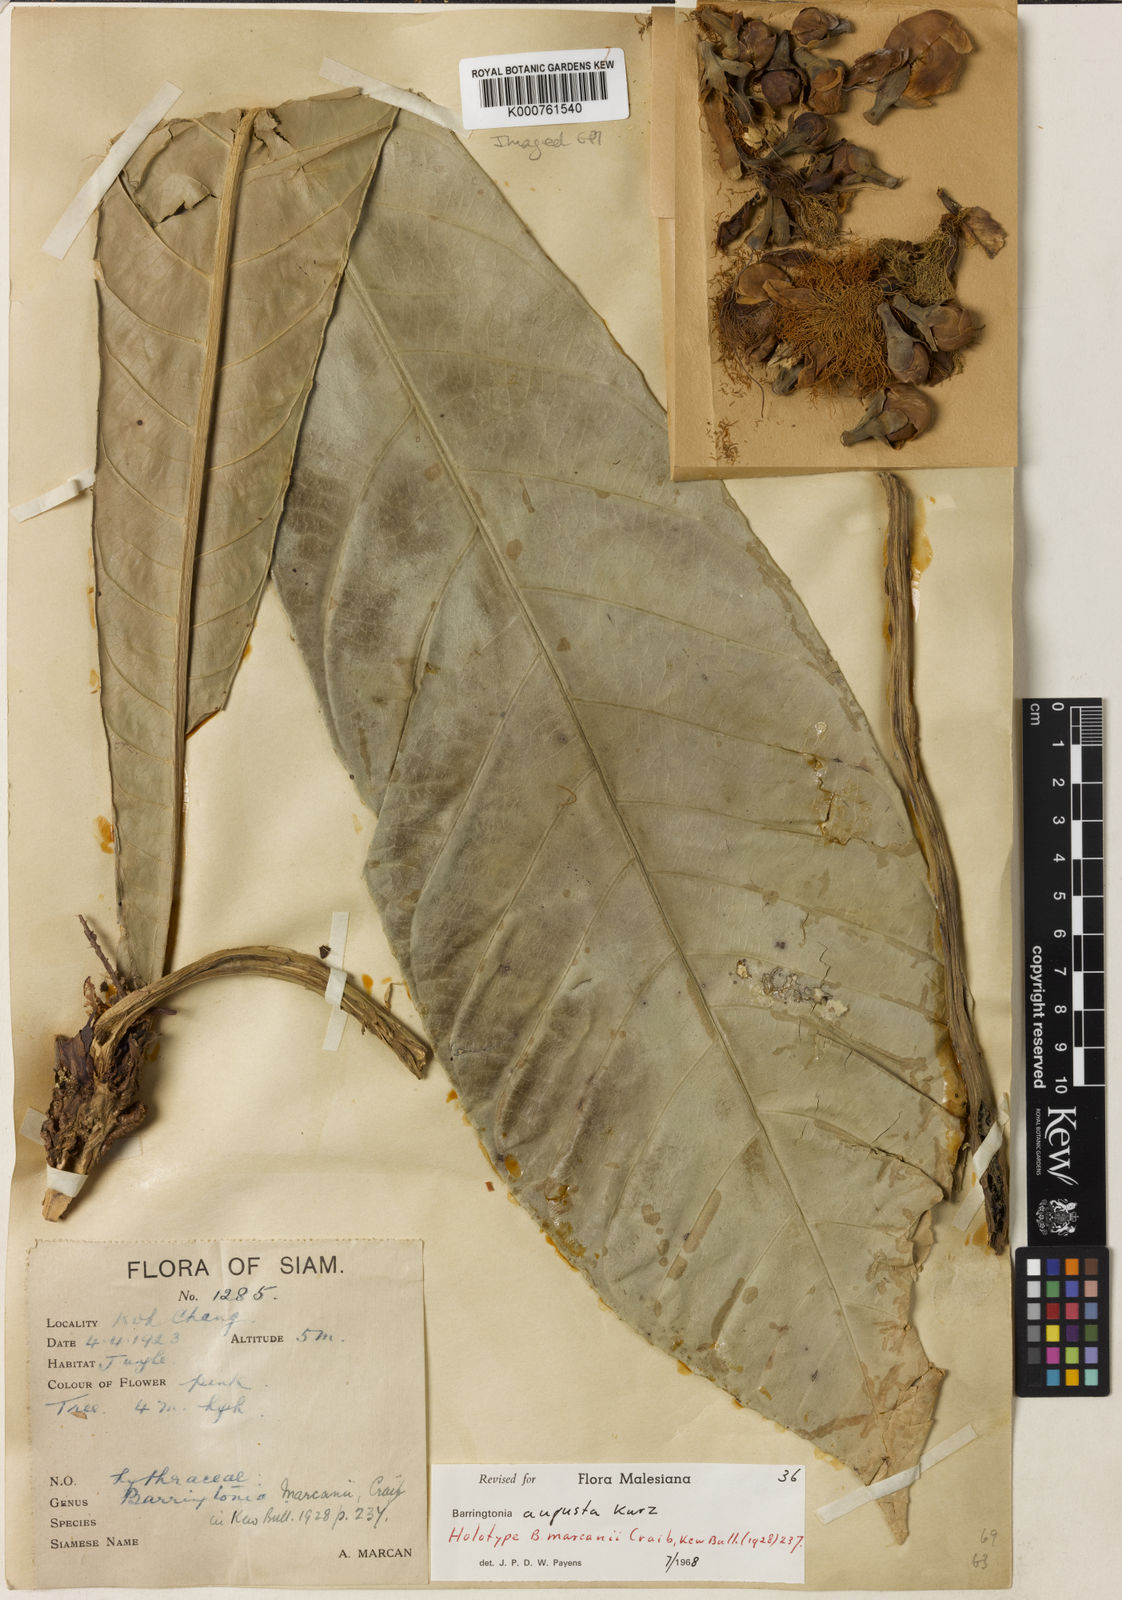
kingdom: Plantae
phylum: Tracheophyta
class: Magnoliopsida
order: Ericales
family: Lecythidaceae
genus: Barringtonia
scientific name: Barringtonia augusta
